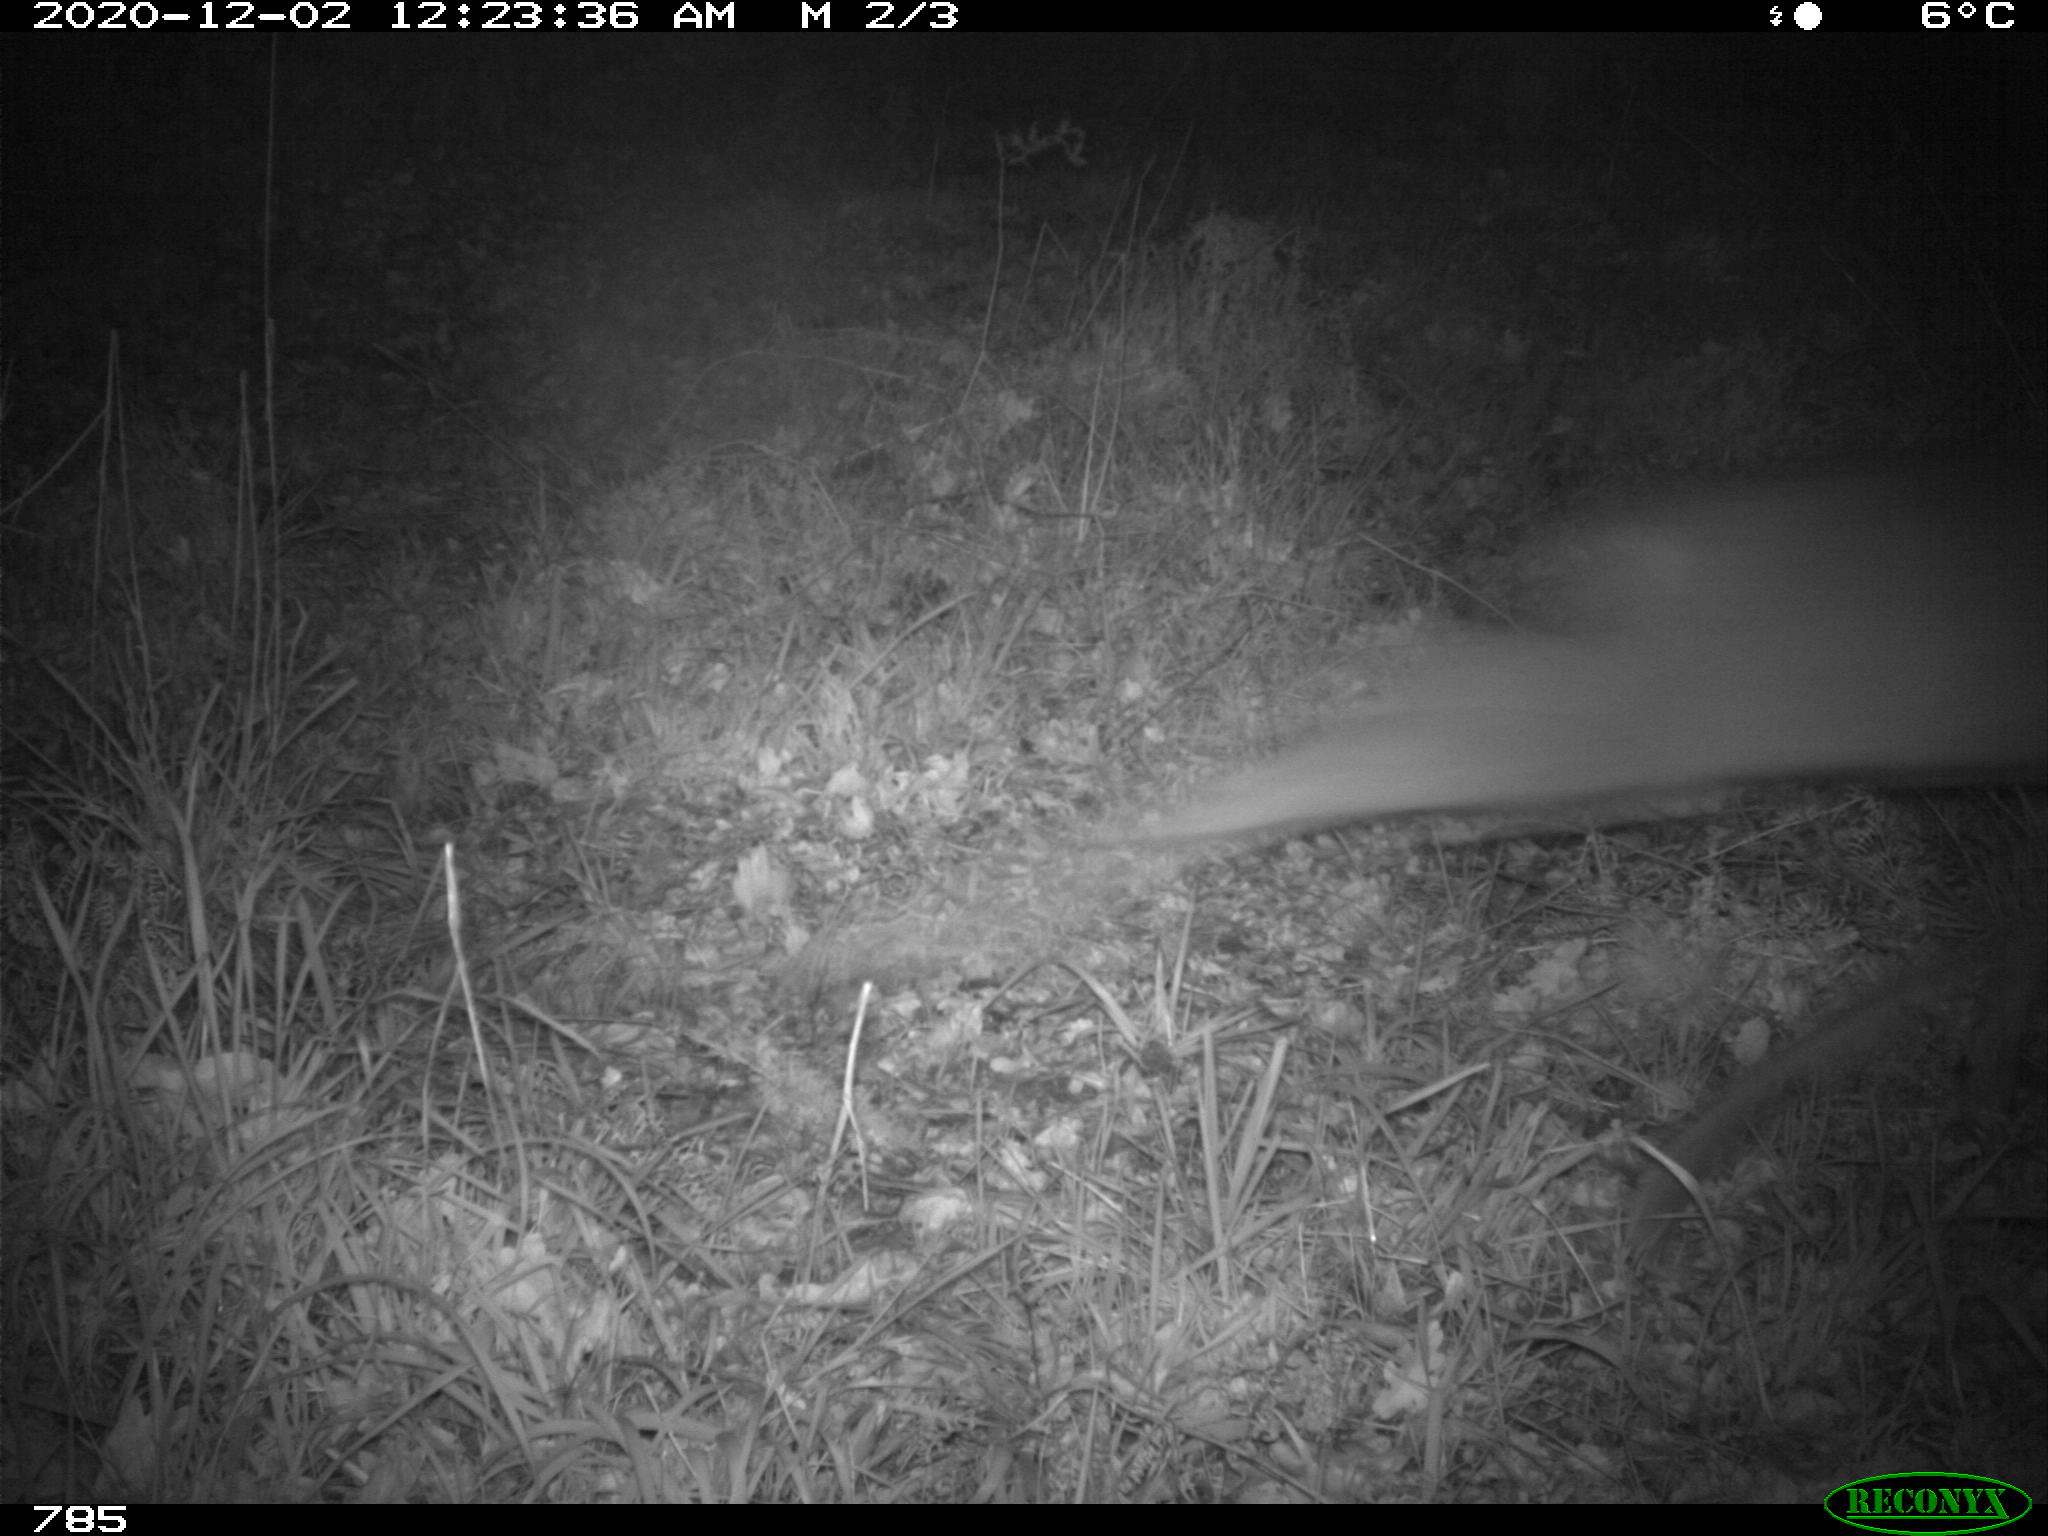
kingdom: Animalia
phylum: Chordata
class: Mammalia
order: Artiodactyla
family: Cervidae
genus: Capreolus
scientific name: Capreolus capreolus
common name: Western roe deer
